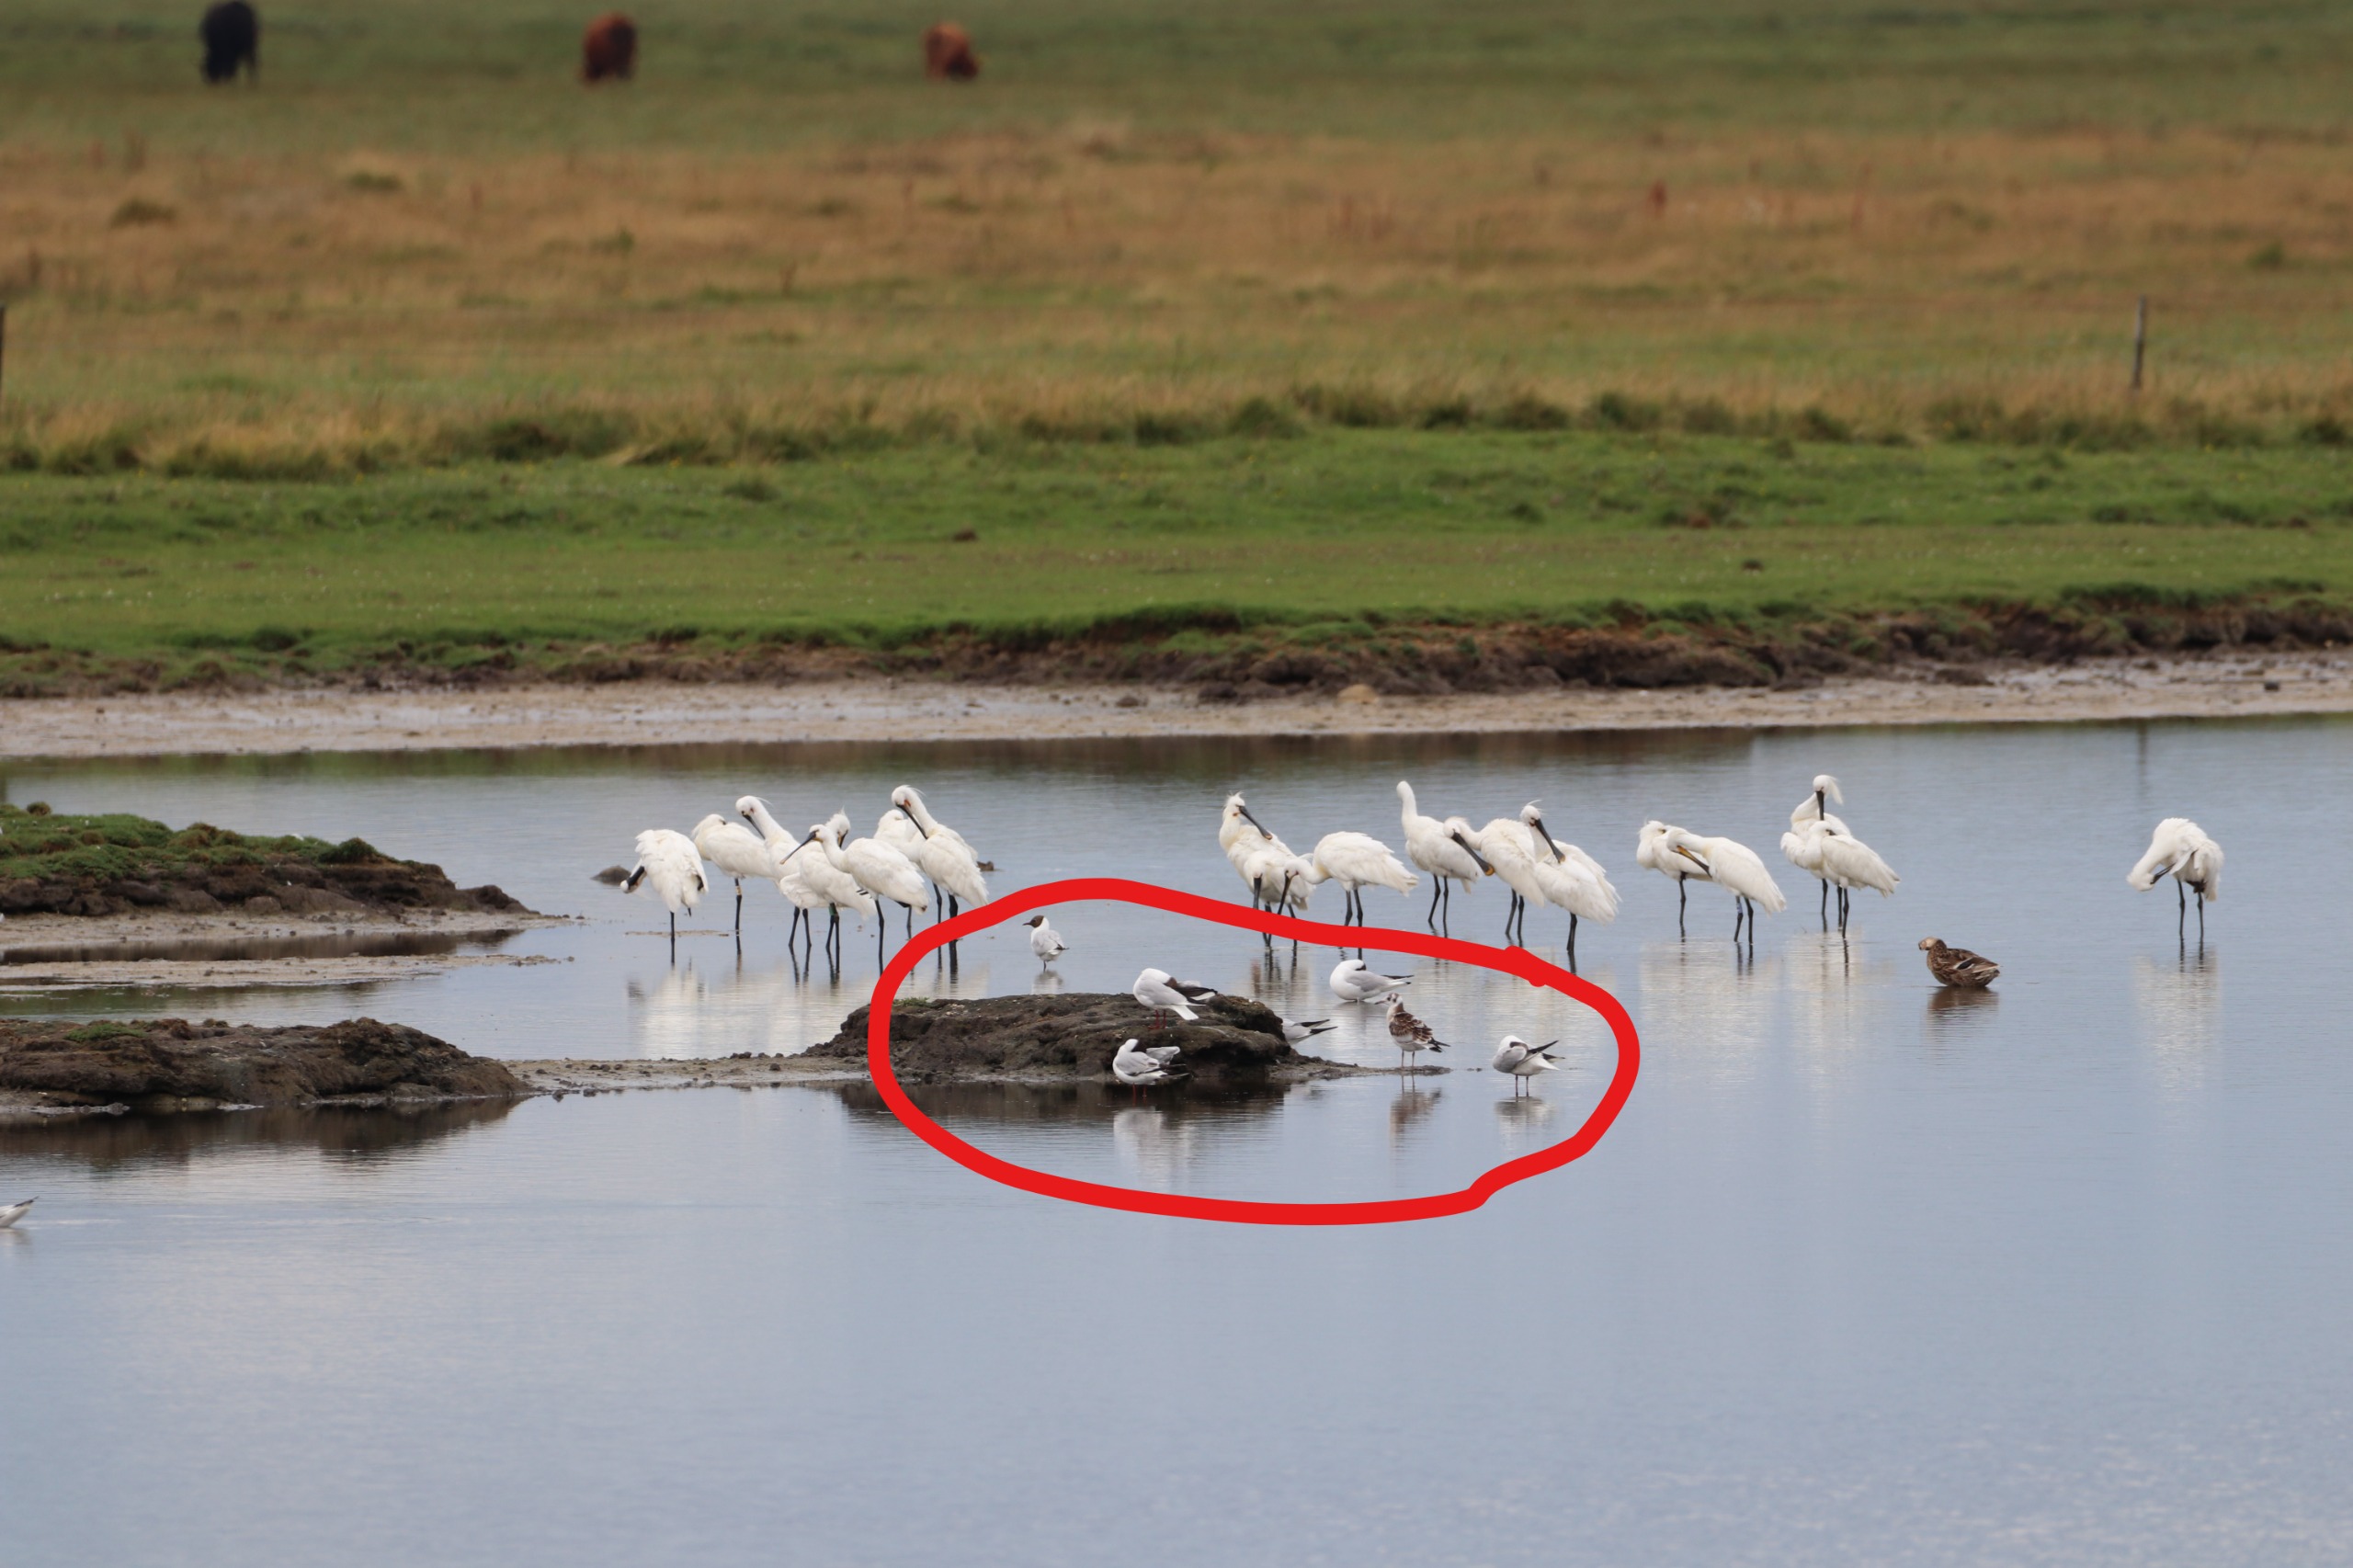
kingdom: Animalia
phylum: Chordata
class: Aves
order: Charadriiformes
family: Laridae
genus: Chroicocephalus
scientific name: Chroicocephalus ridibundus
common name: Hættemåge
